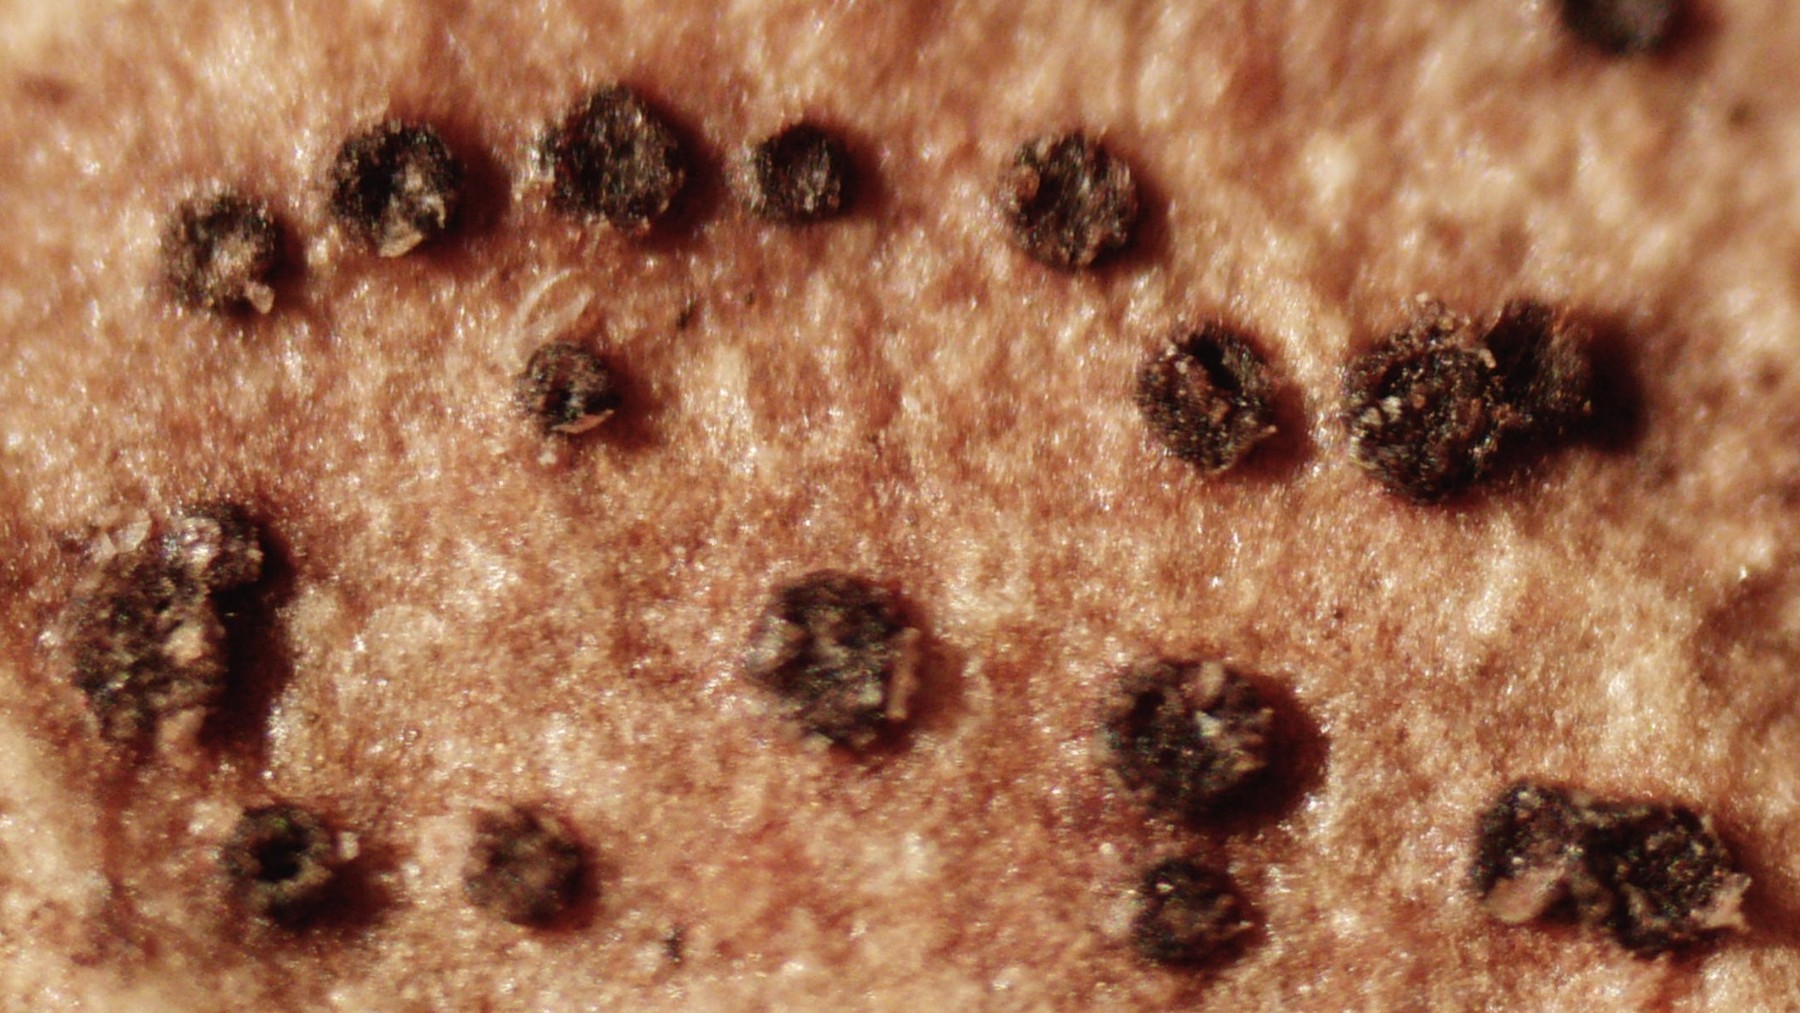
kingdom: Fungi
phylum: Ascomycota
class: Leotiomycetes
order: Helotiales
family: Cenangiaceae
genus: Trochila
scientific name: Trochila craterium
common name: vedbend-lågskive
